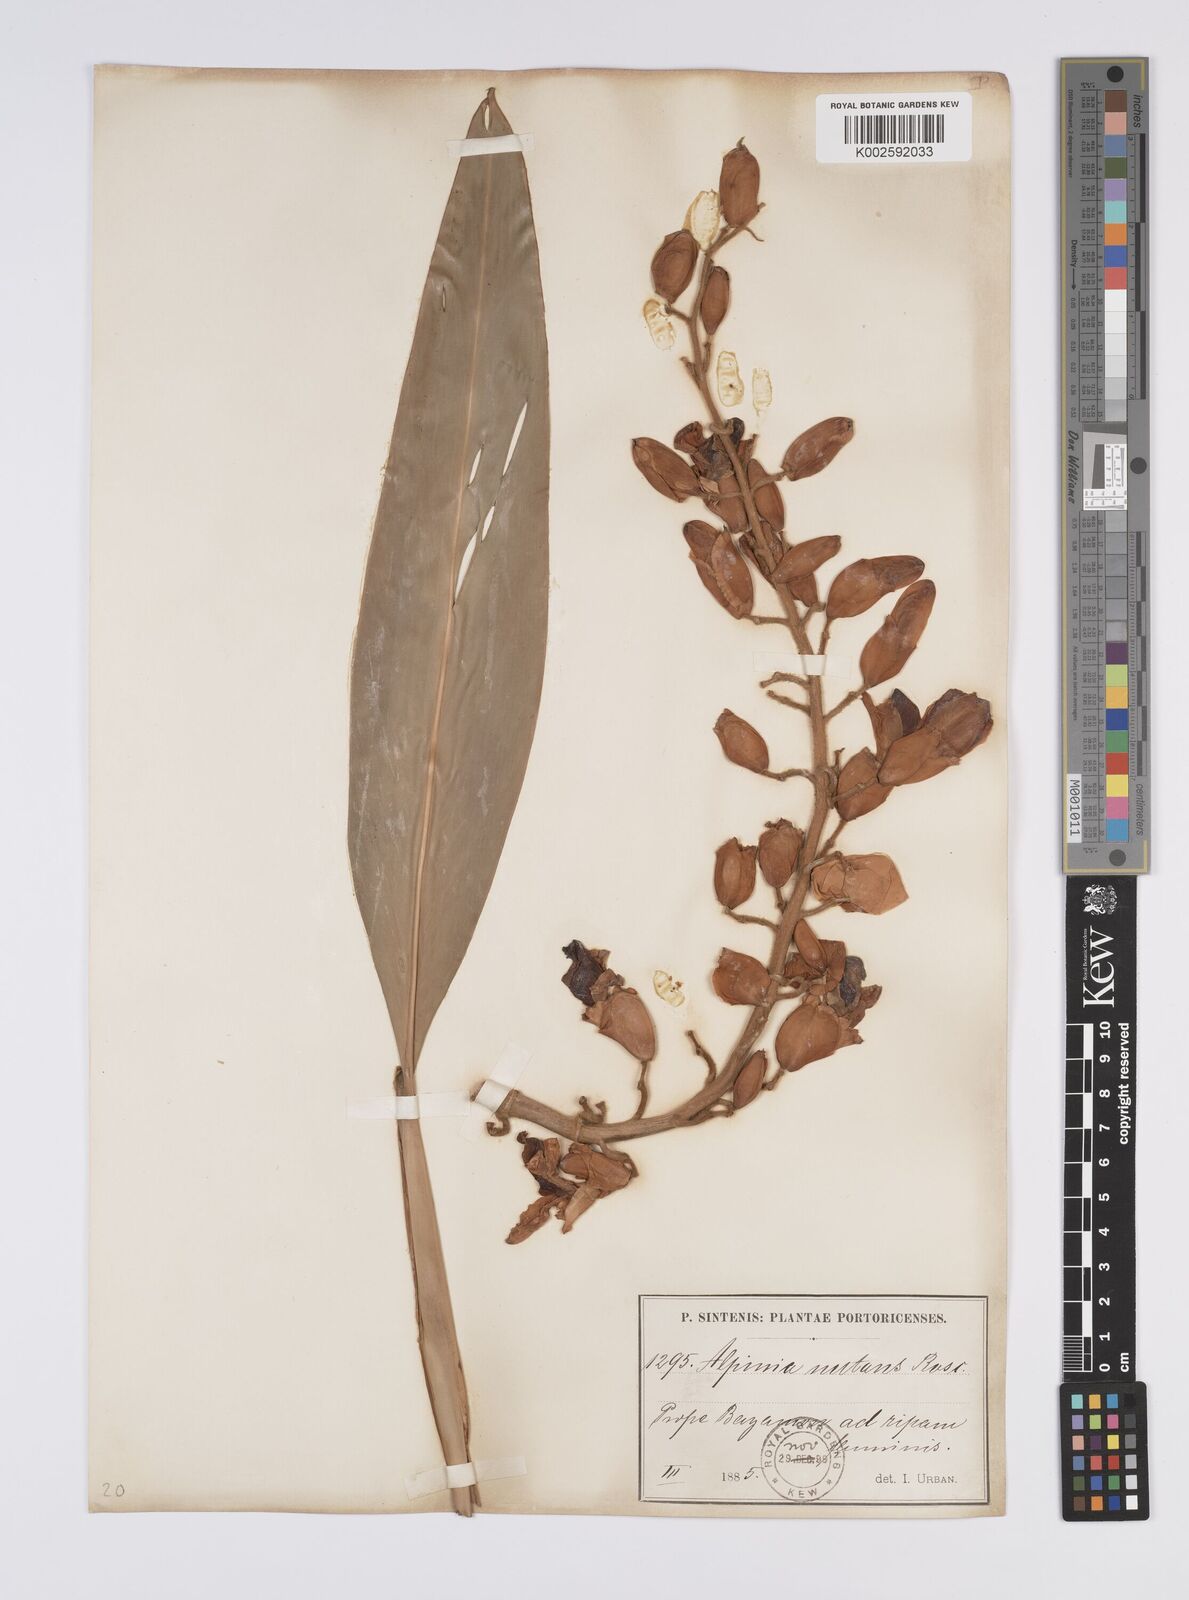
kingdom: Plantae
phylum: Tracheophyta
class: Liliopsida
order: Zingiberales
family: Zingiberaceae
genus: Alpinia
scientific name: Alpinia zerumbet
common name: Shellplant
